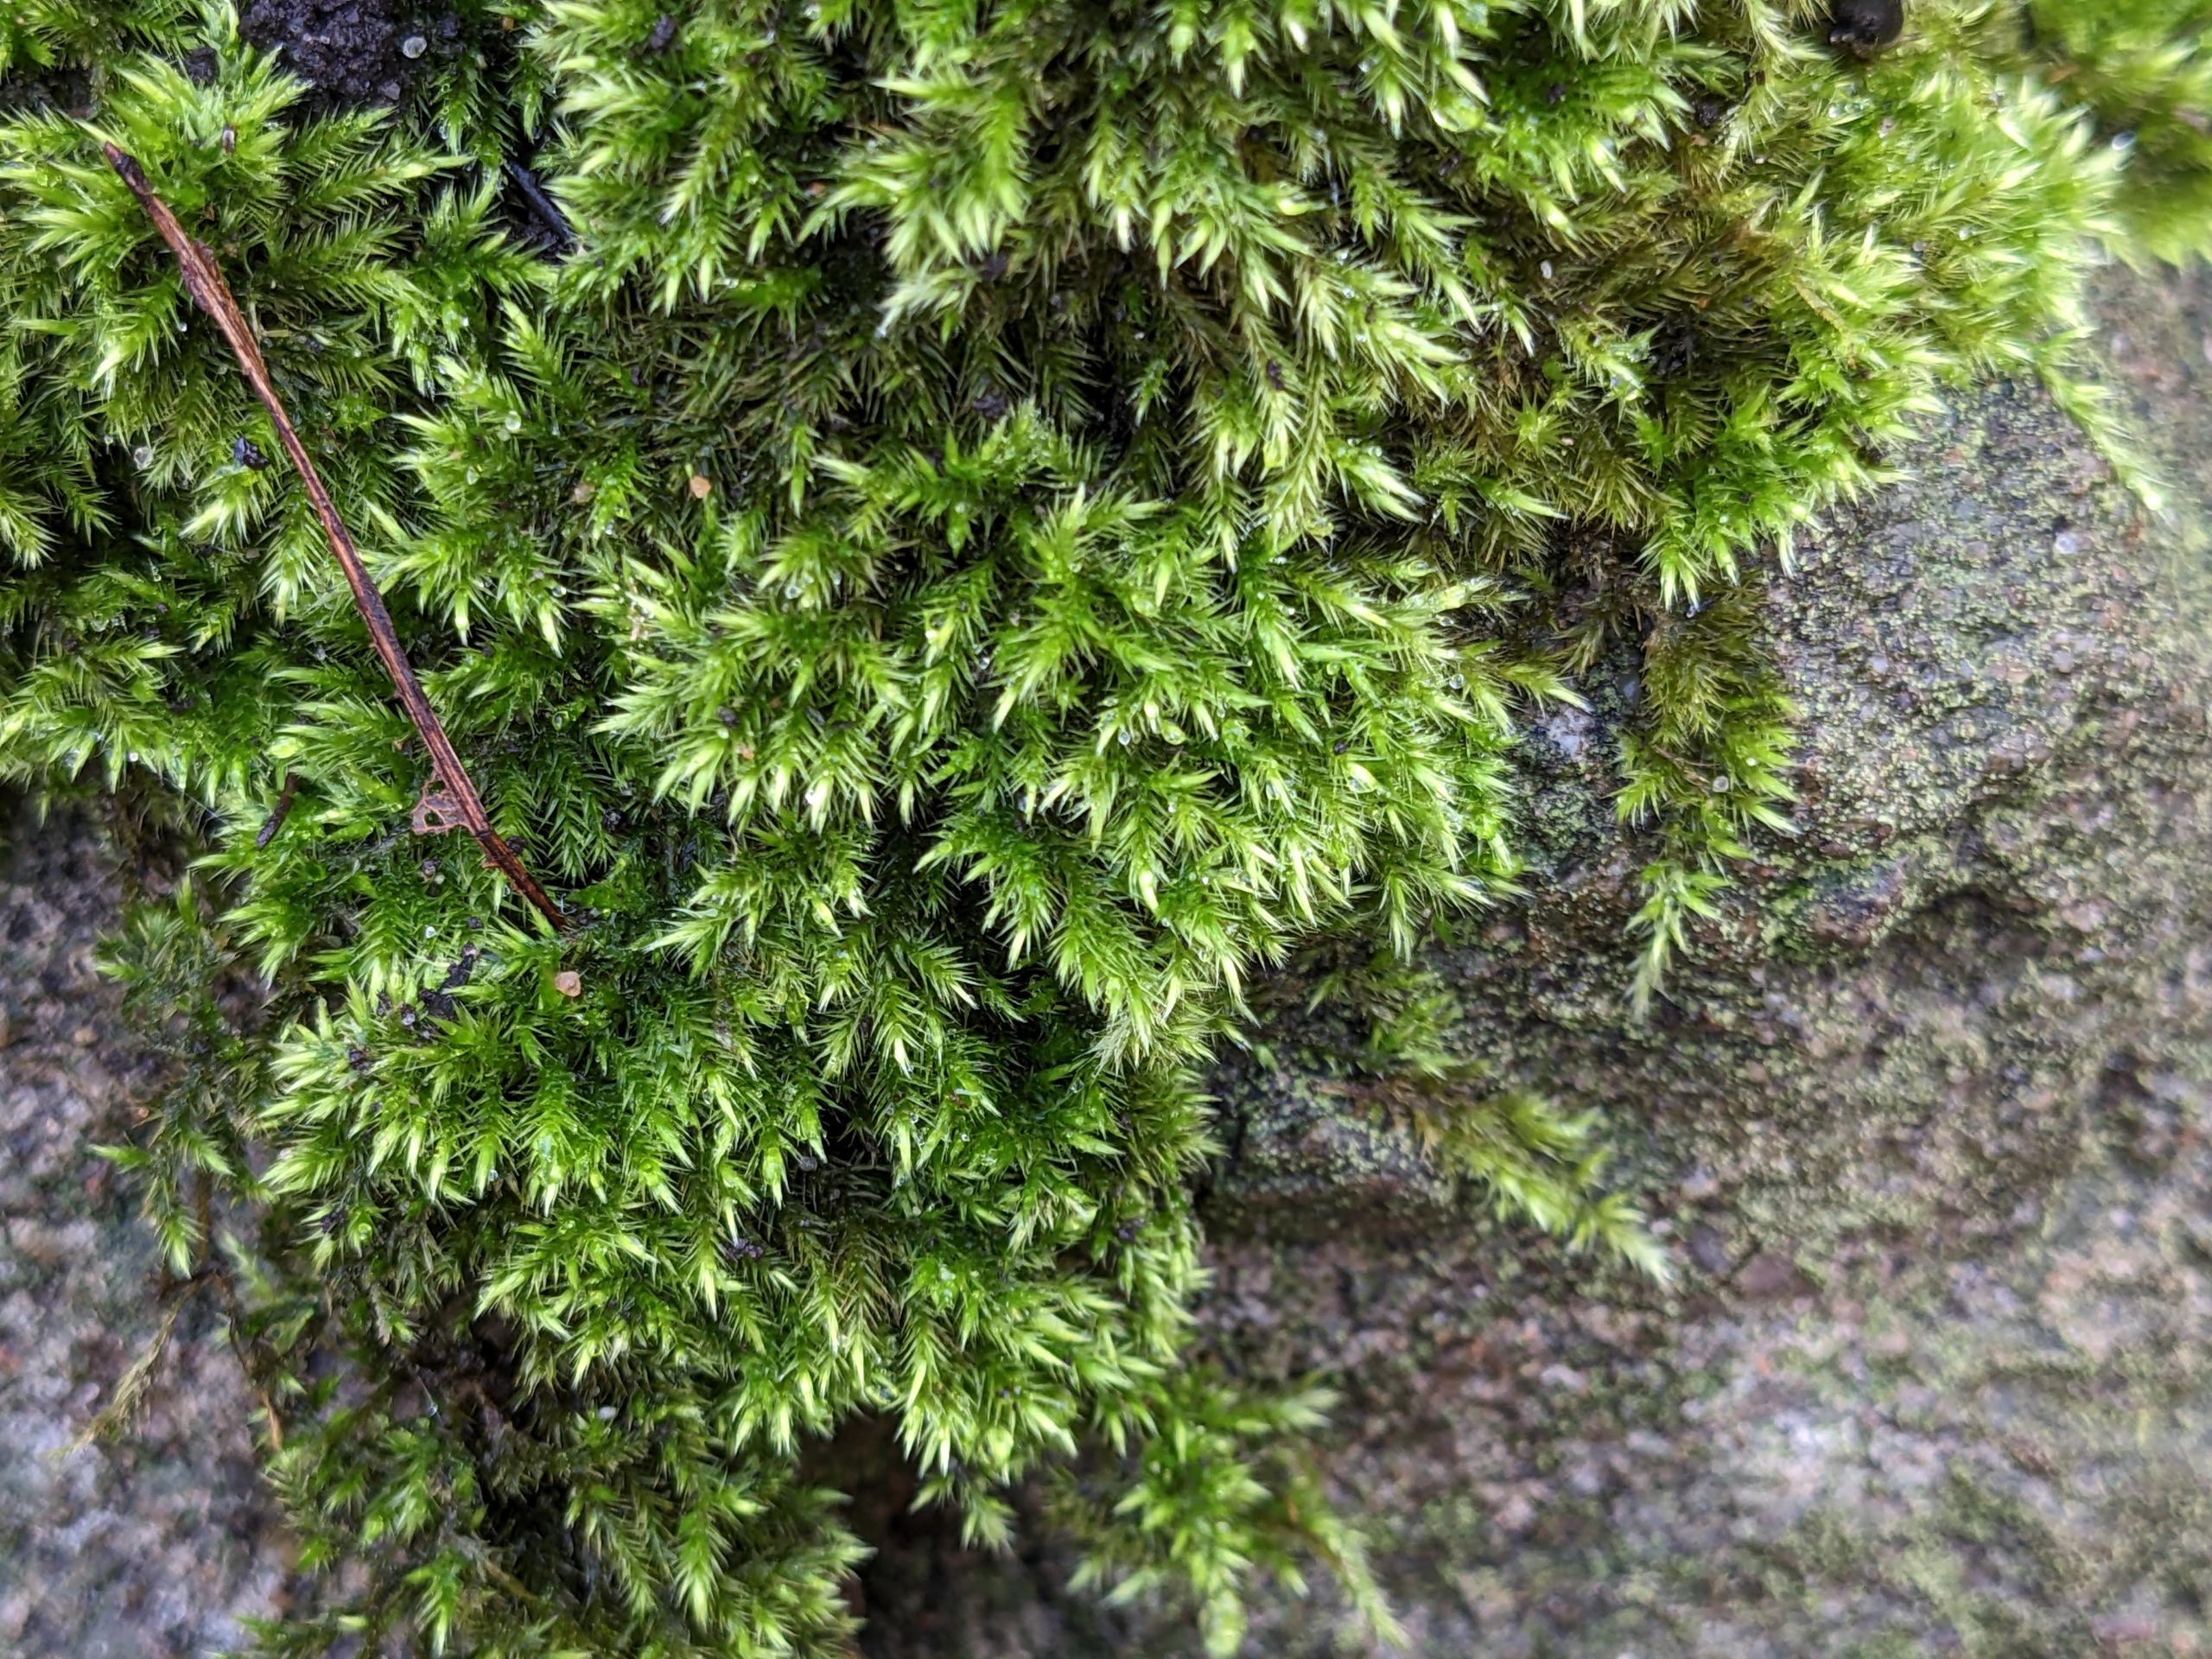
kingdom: Plantae
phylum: Bryophyta
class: Bryopsida
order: Hypnales
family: Brachytheciaceae
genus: Homalothecium
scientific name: Homalothecium sericeum
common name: Krybende silkemos
